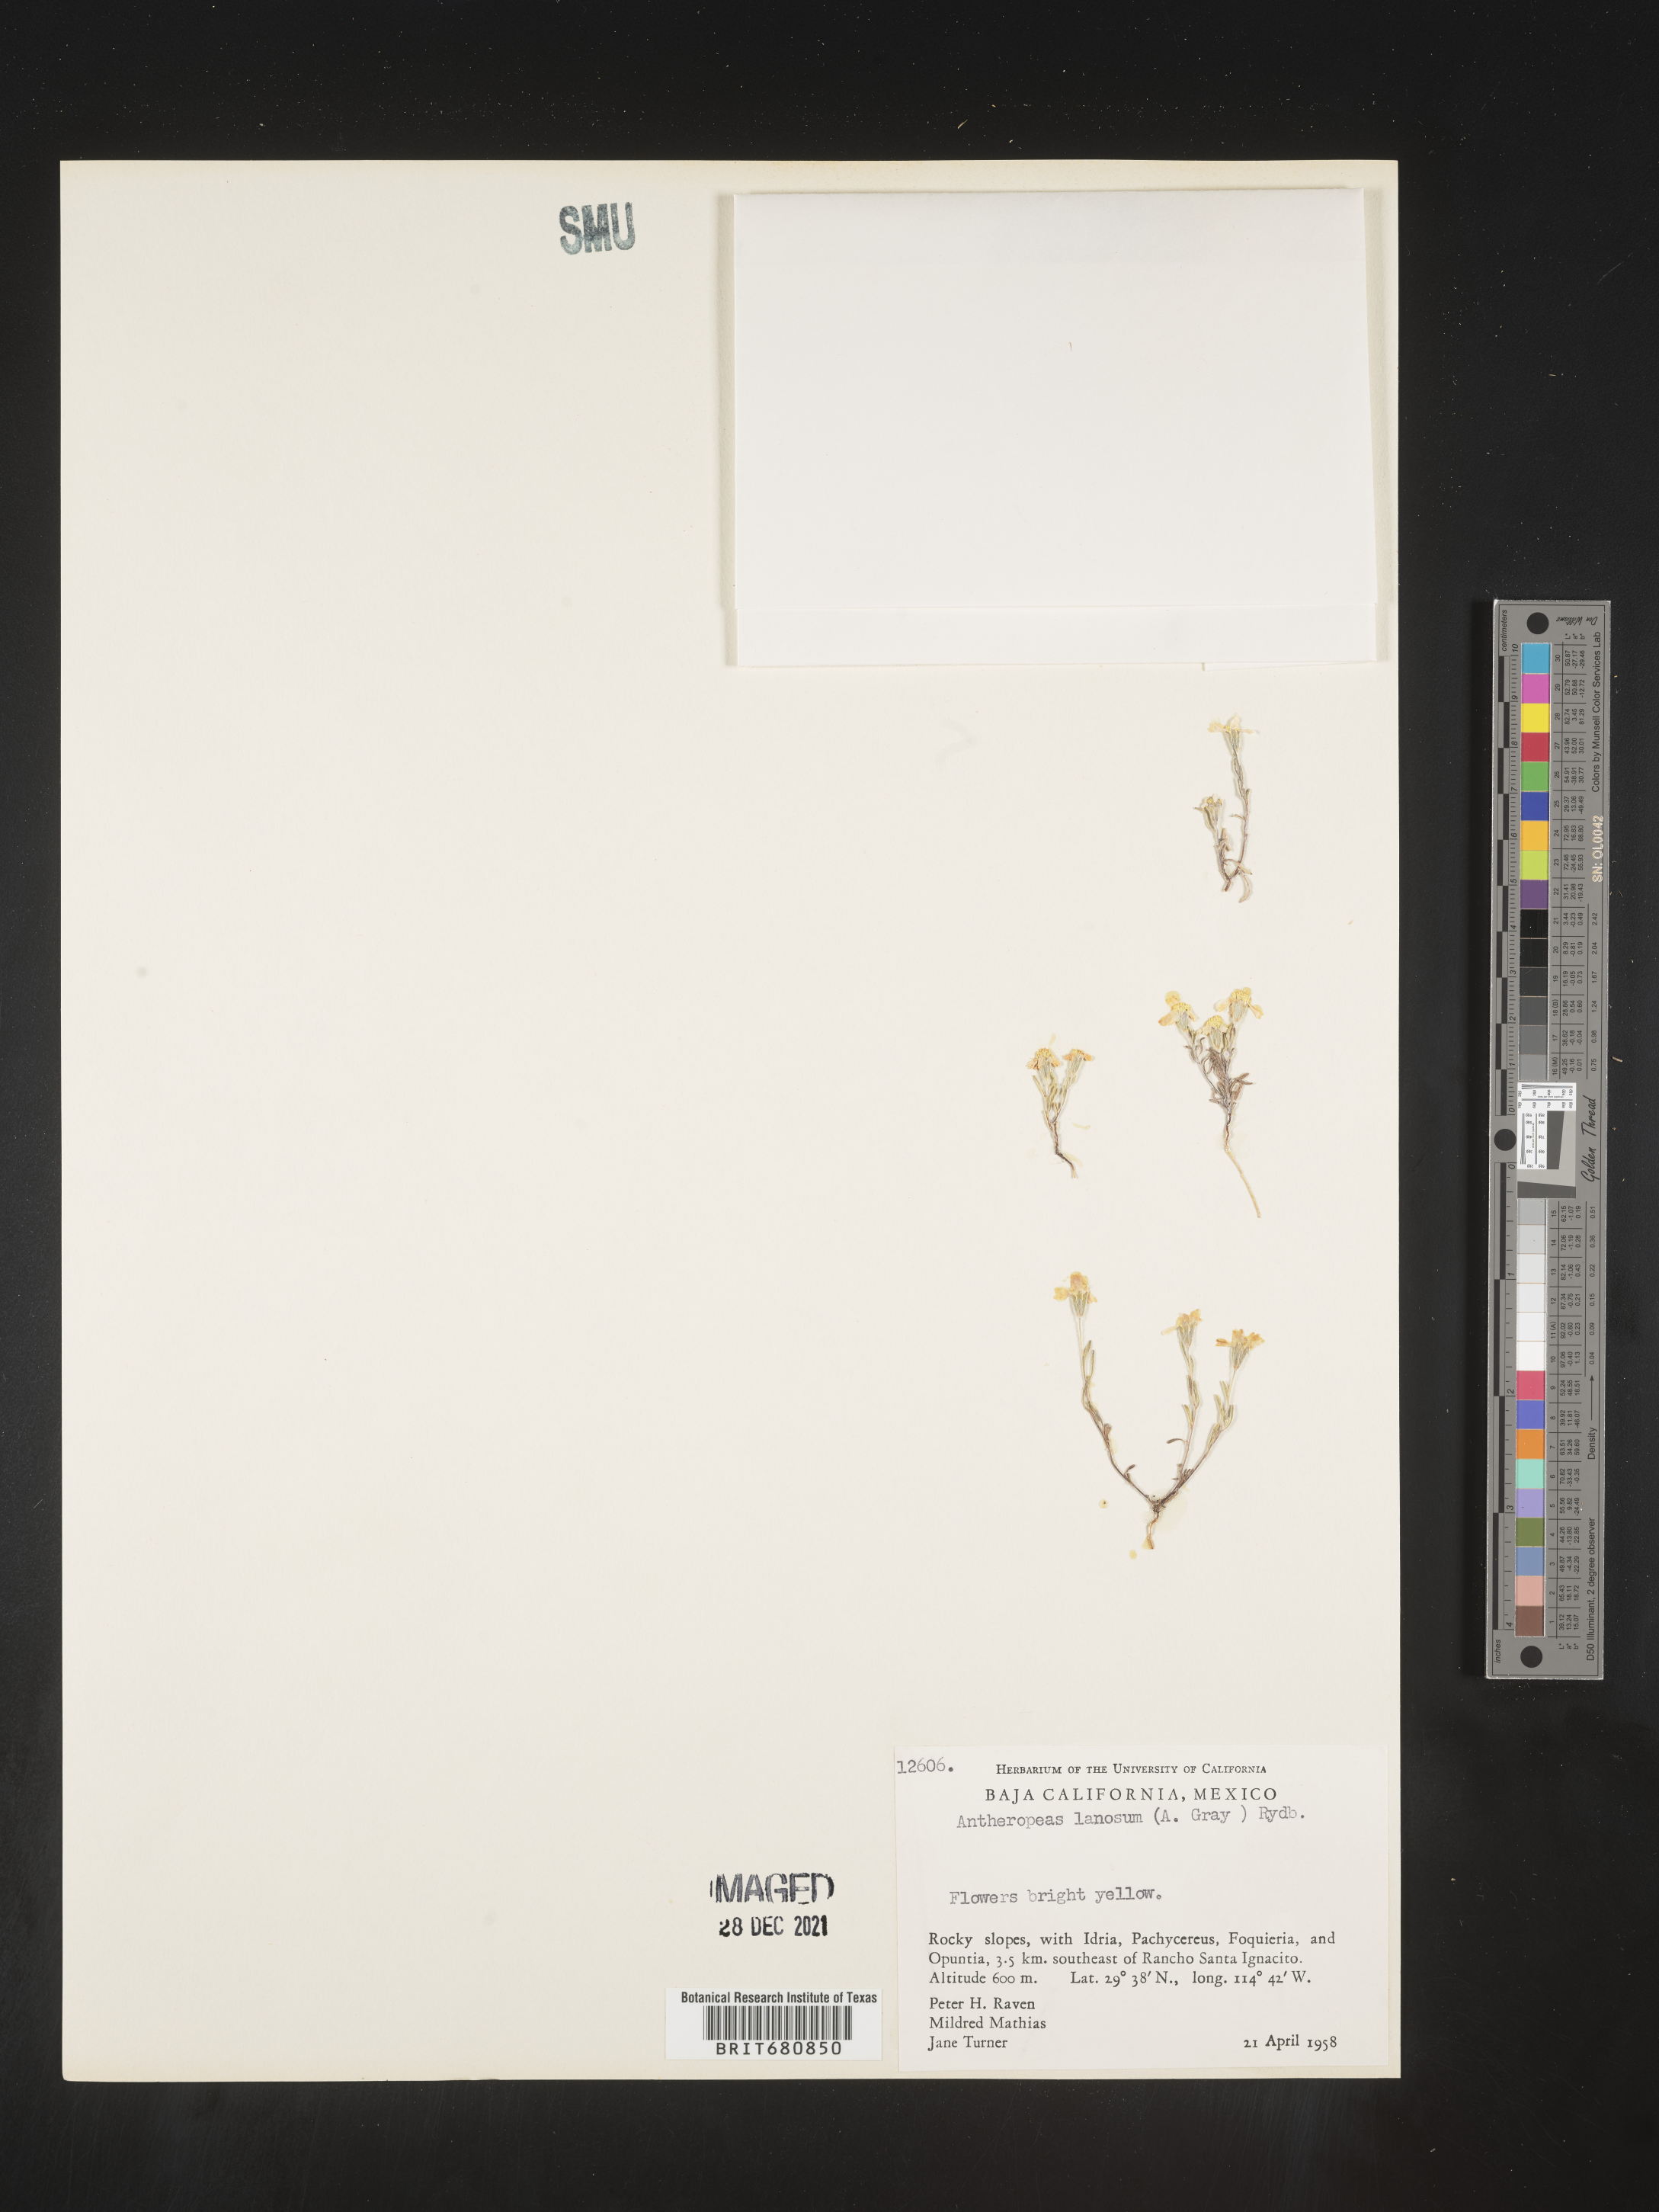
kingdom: Plantae
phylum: Tracheophyta
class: Magnoliopsida
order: Asterales
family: Asteraceae
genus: Eriophyllum
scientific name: Eriophyllum
